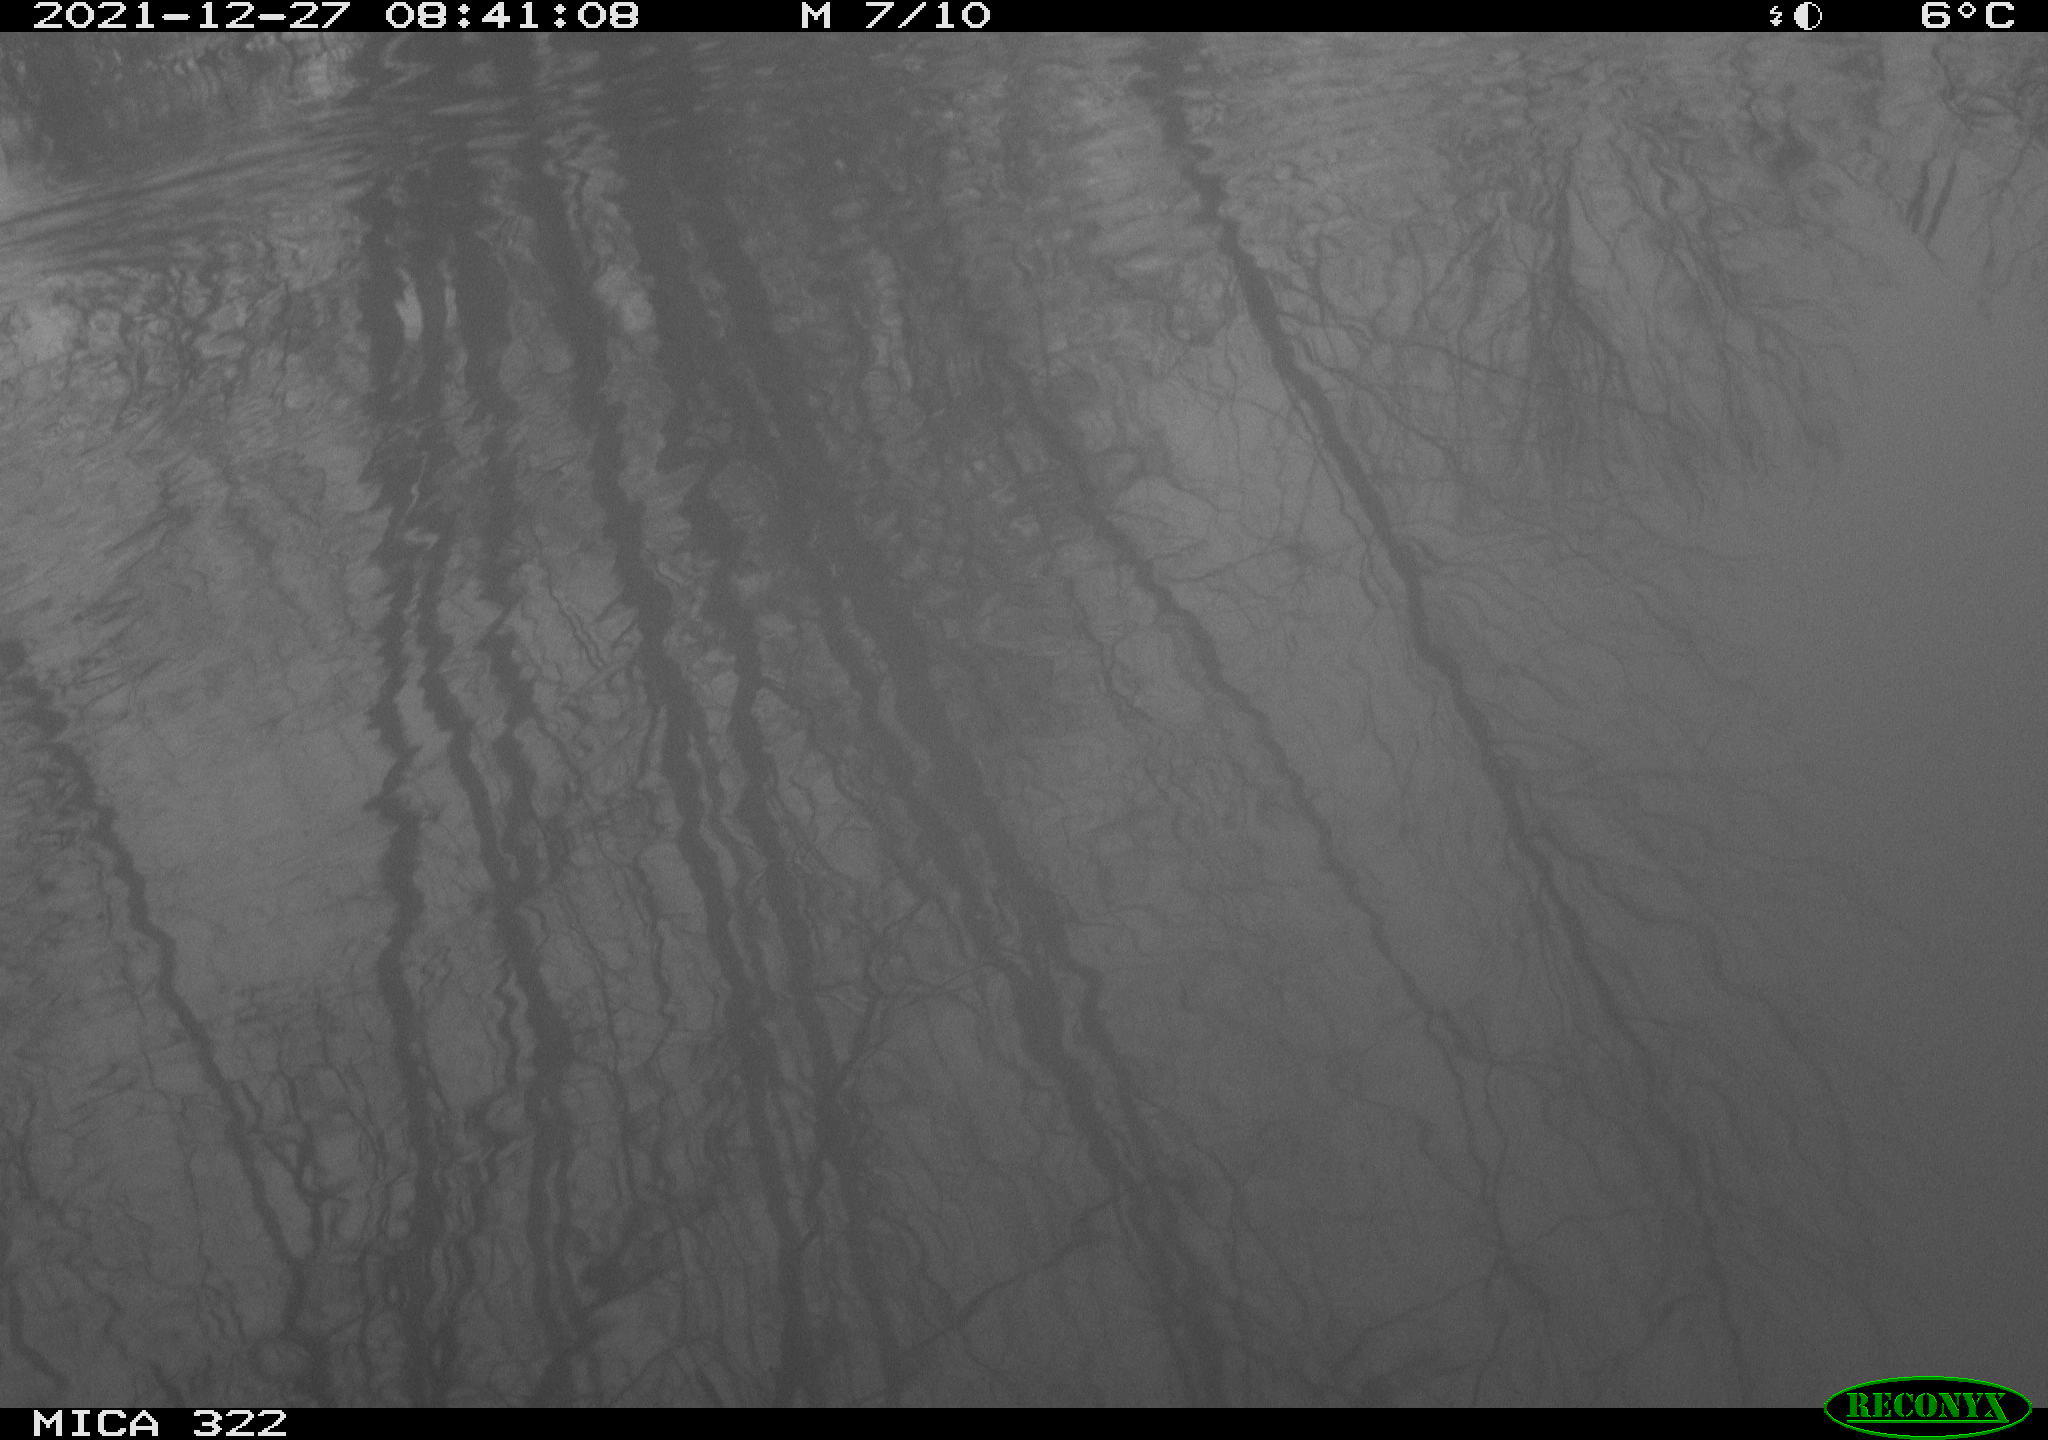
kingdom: Animalia
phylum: Chordata
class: Aves
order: Gruiformes
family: Rallidae
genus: Gallinula
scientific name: Gallinula chloropus
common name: Common moorhen
